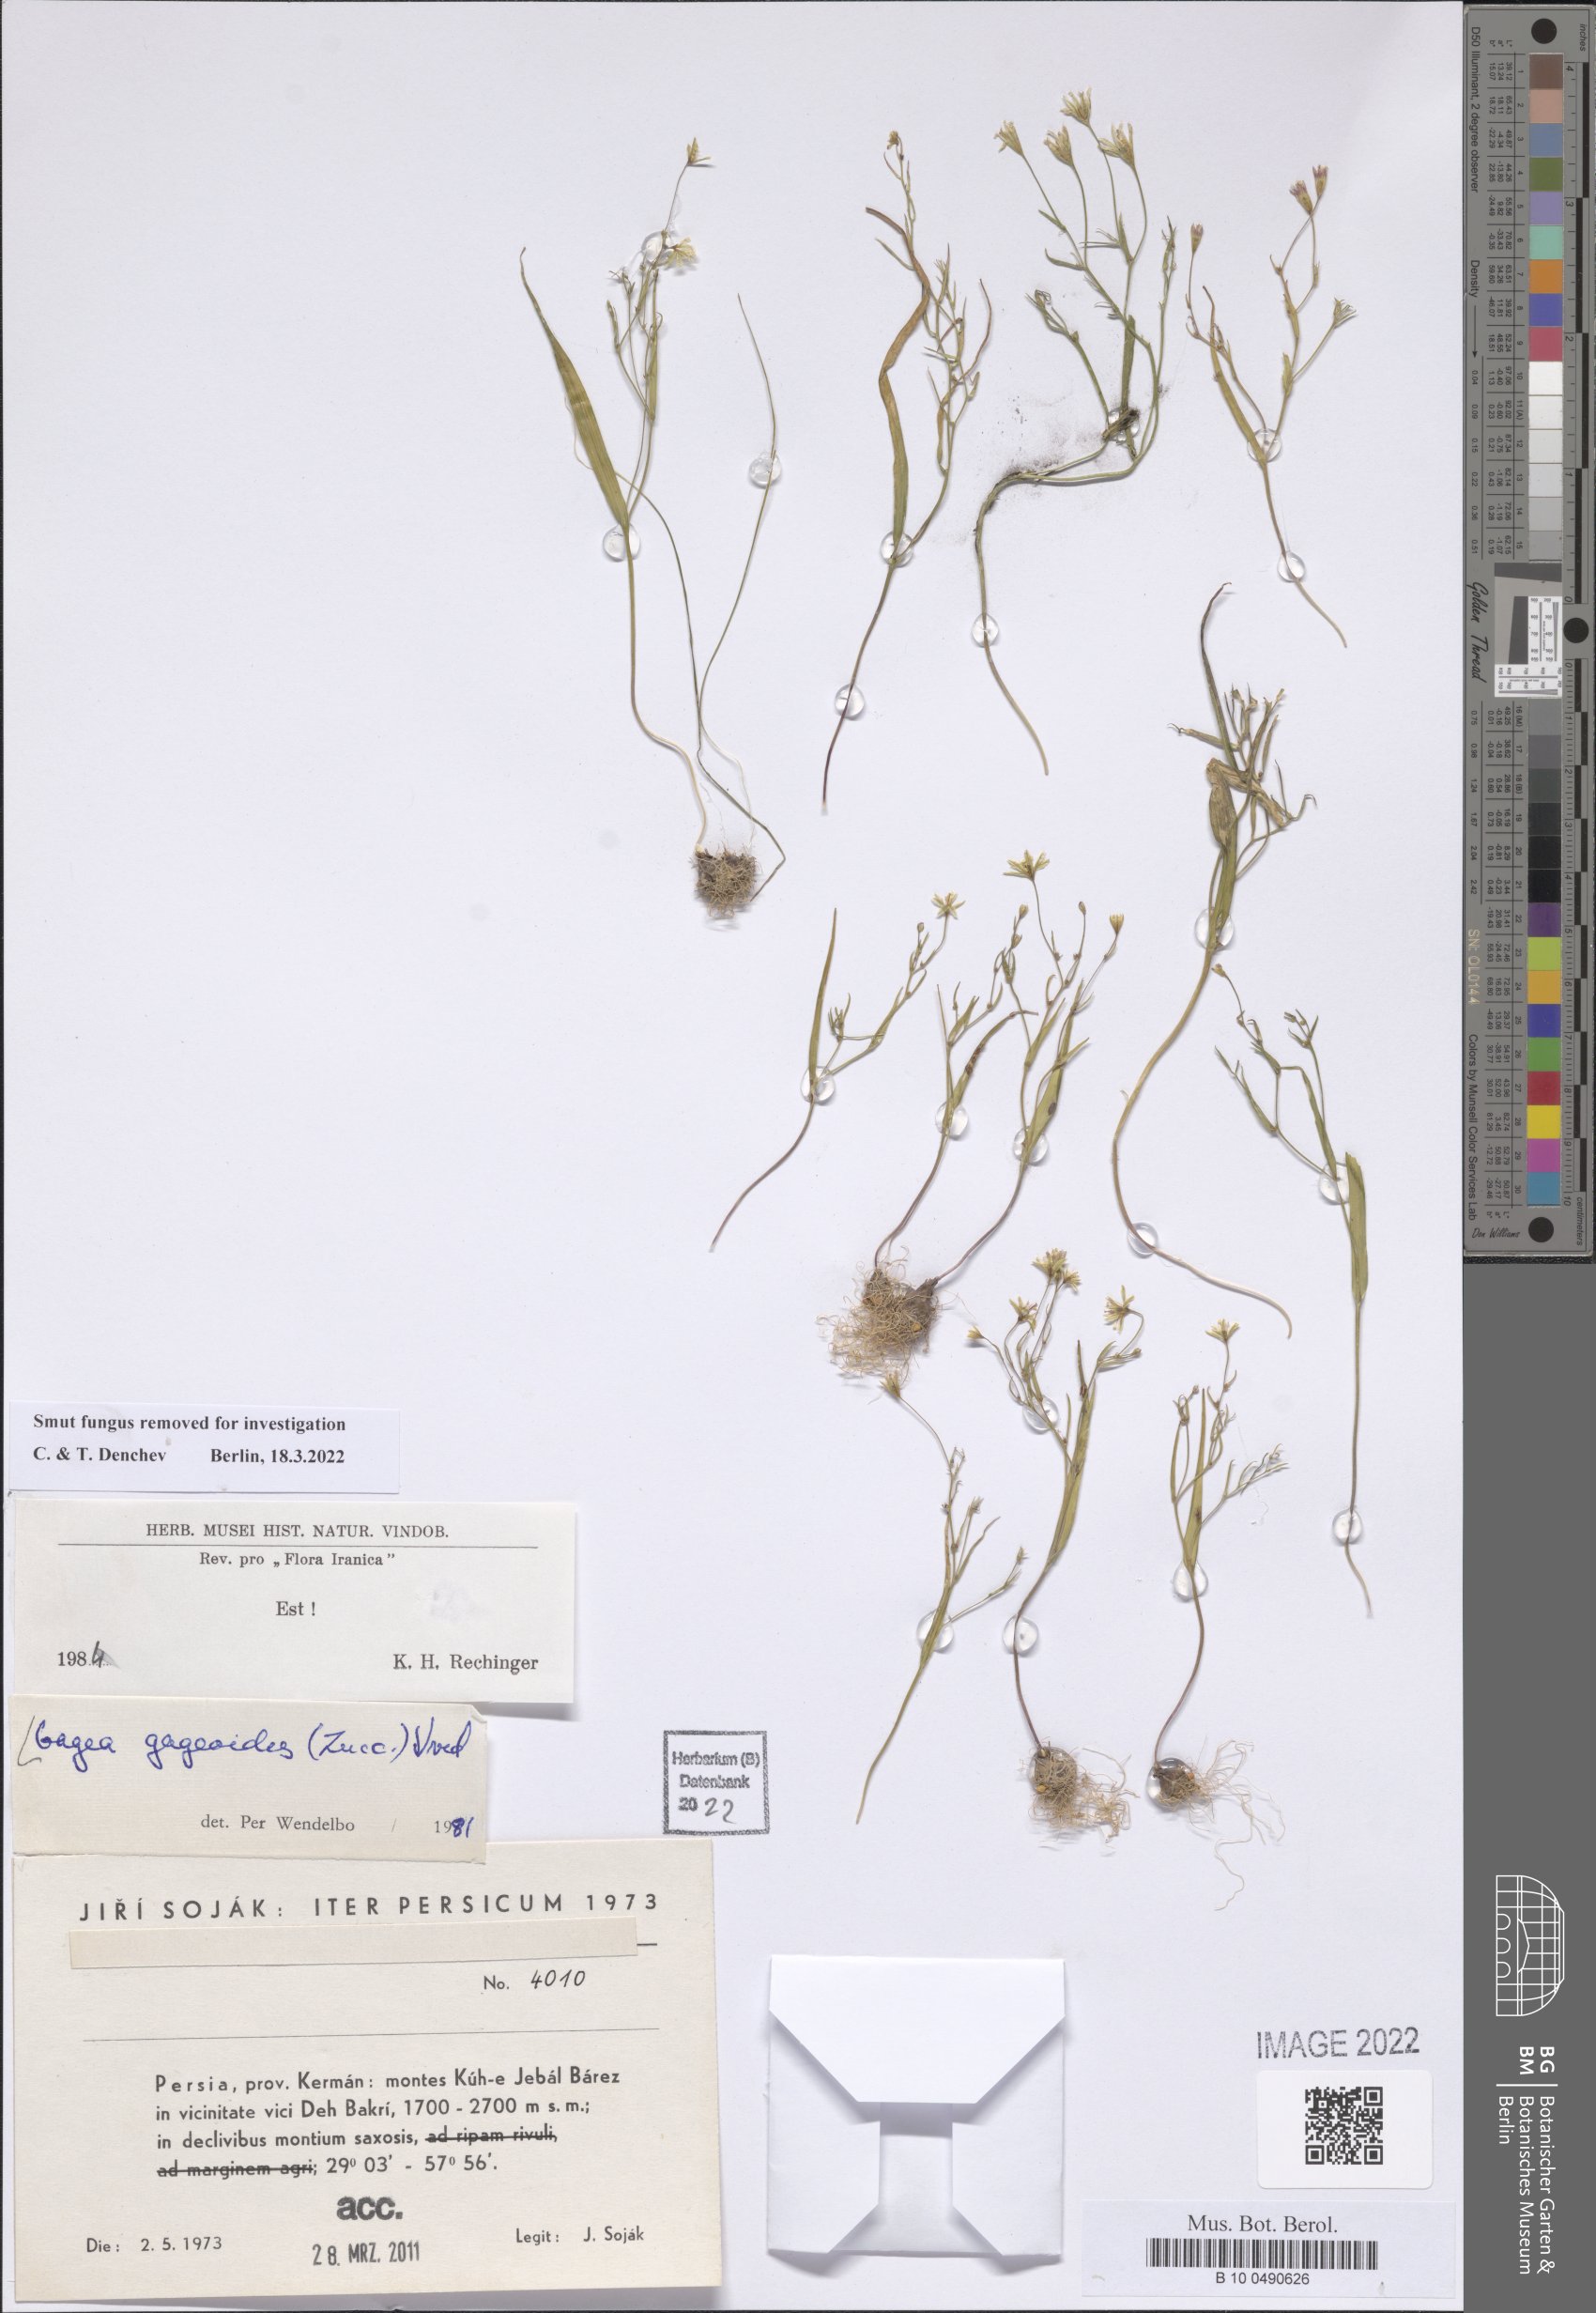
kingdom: Plantae
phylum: Tracheophyta
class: Liliopsida
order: Liliales
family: Liliaceae
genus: Gagea
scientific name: Gagea gageoides
